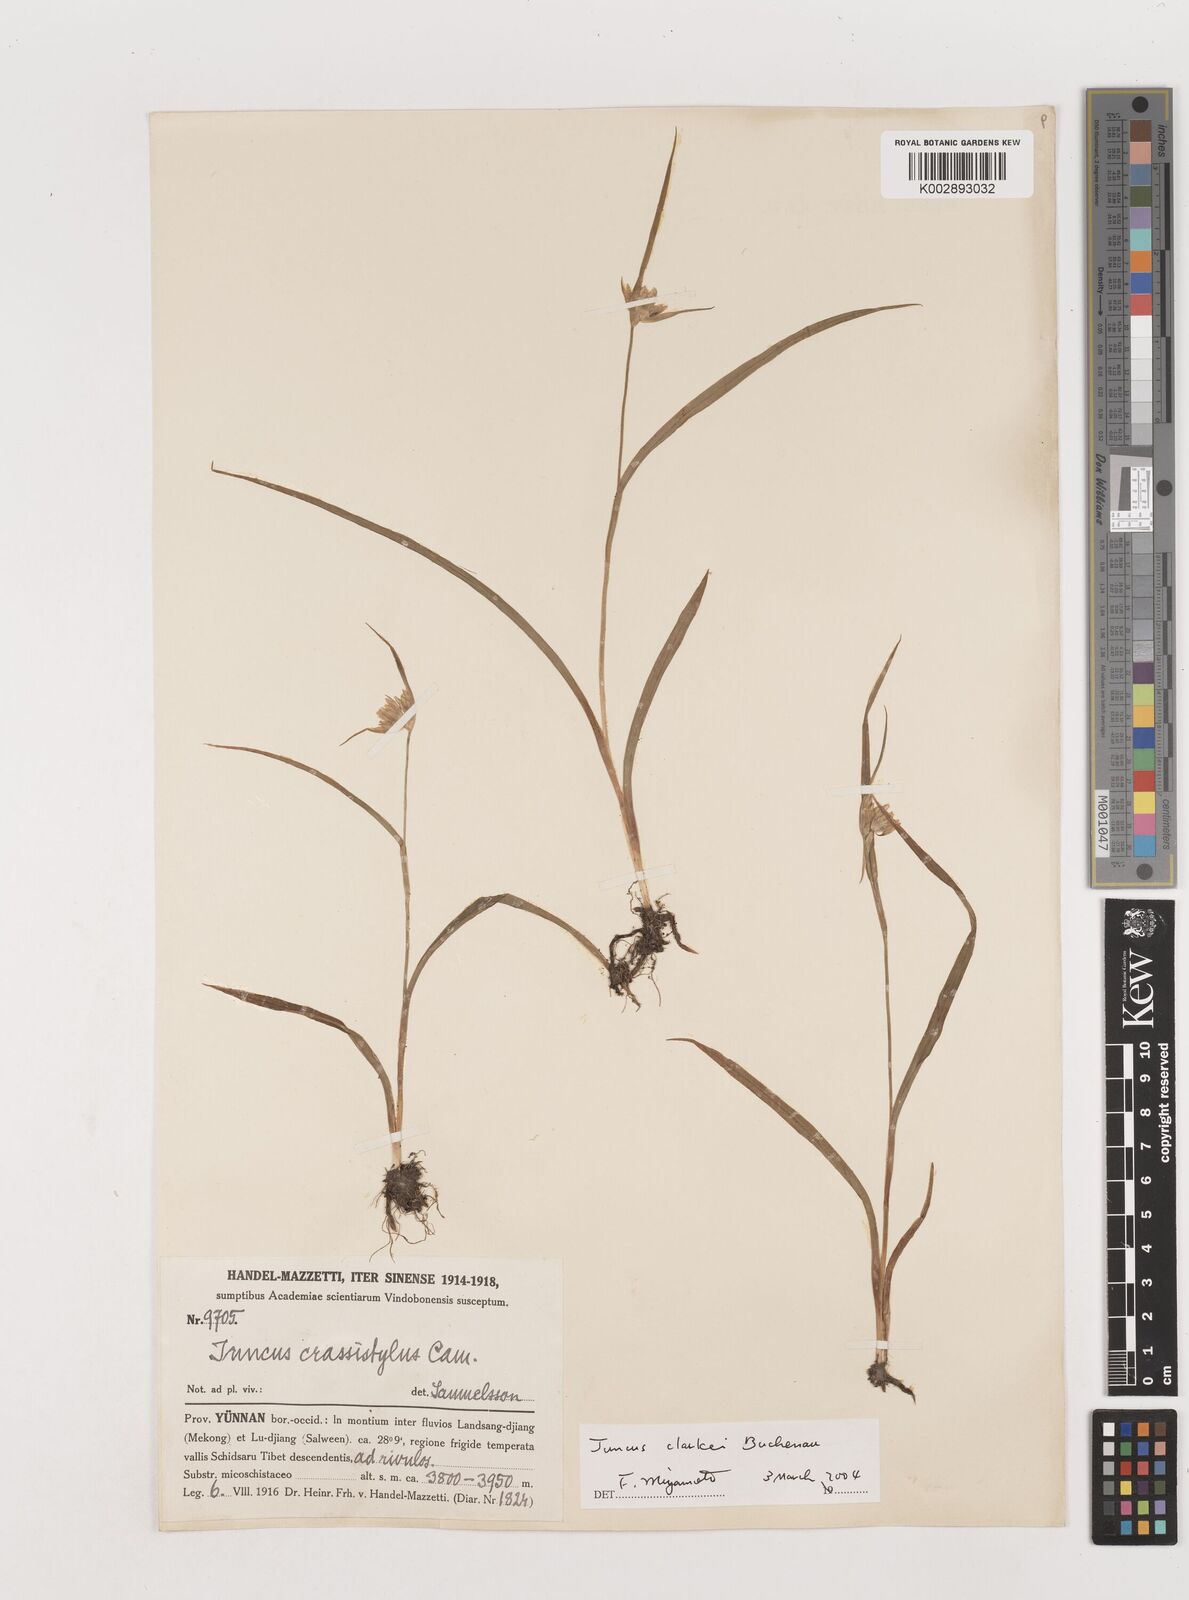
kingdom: Plantae
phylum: Tracheophyta
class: Liliopsida
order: Poales
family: Juncaceae
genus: Juncus
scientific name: Juncus crassistylus
